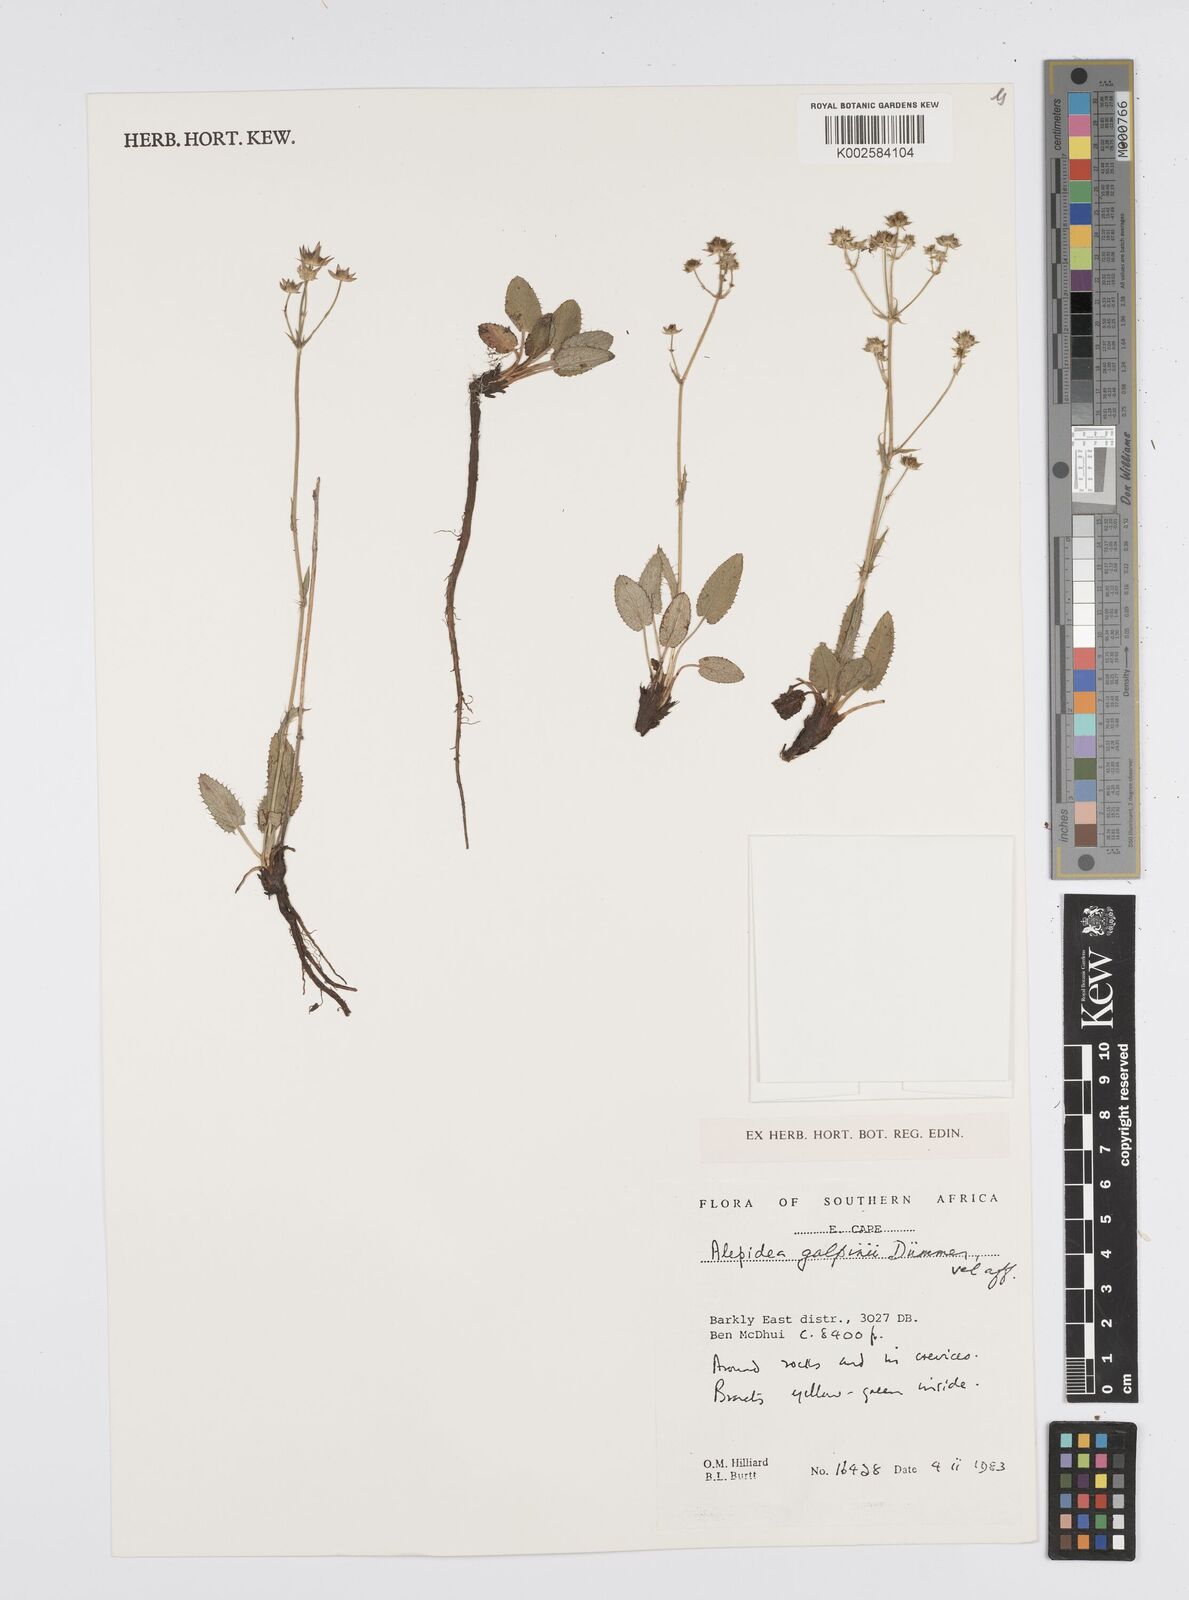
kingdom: Plantae
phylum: Tracheophyta
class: Magnoliopsida
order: Apiales
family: Apiaceae
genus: Alepidea
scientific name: Alepidea galpinii
